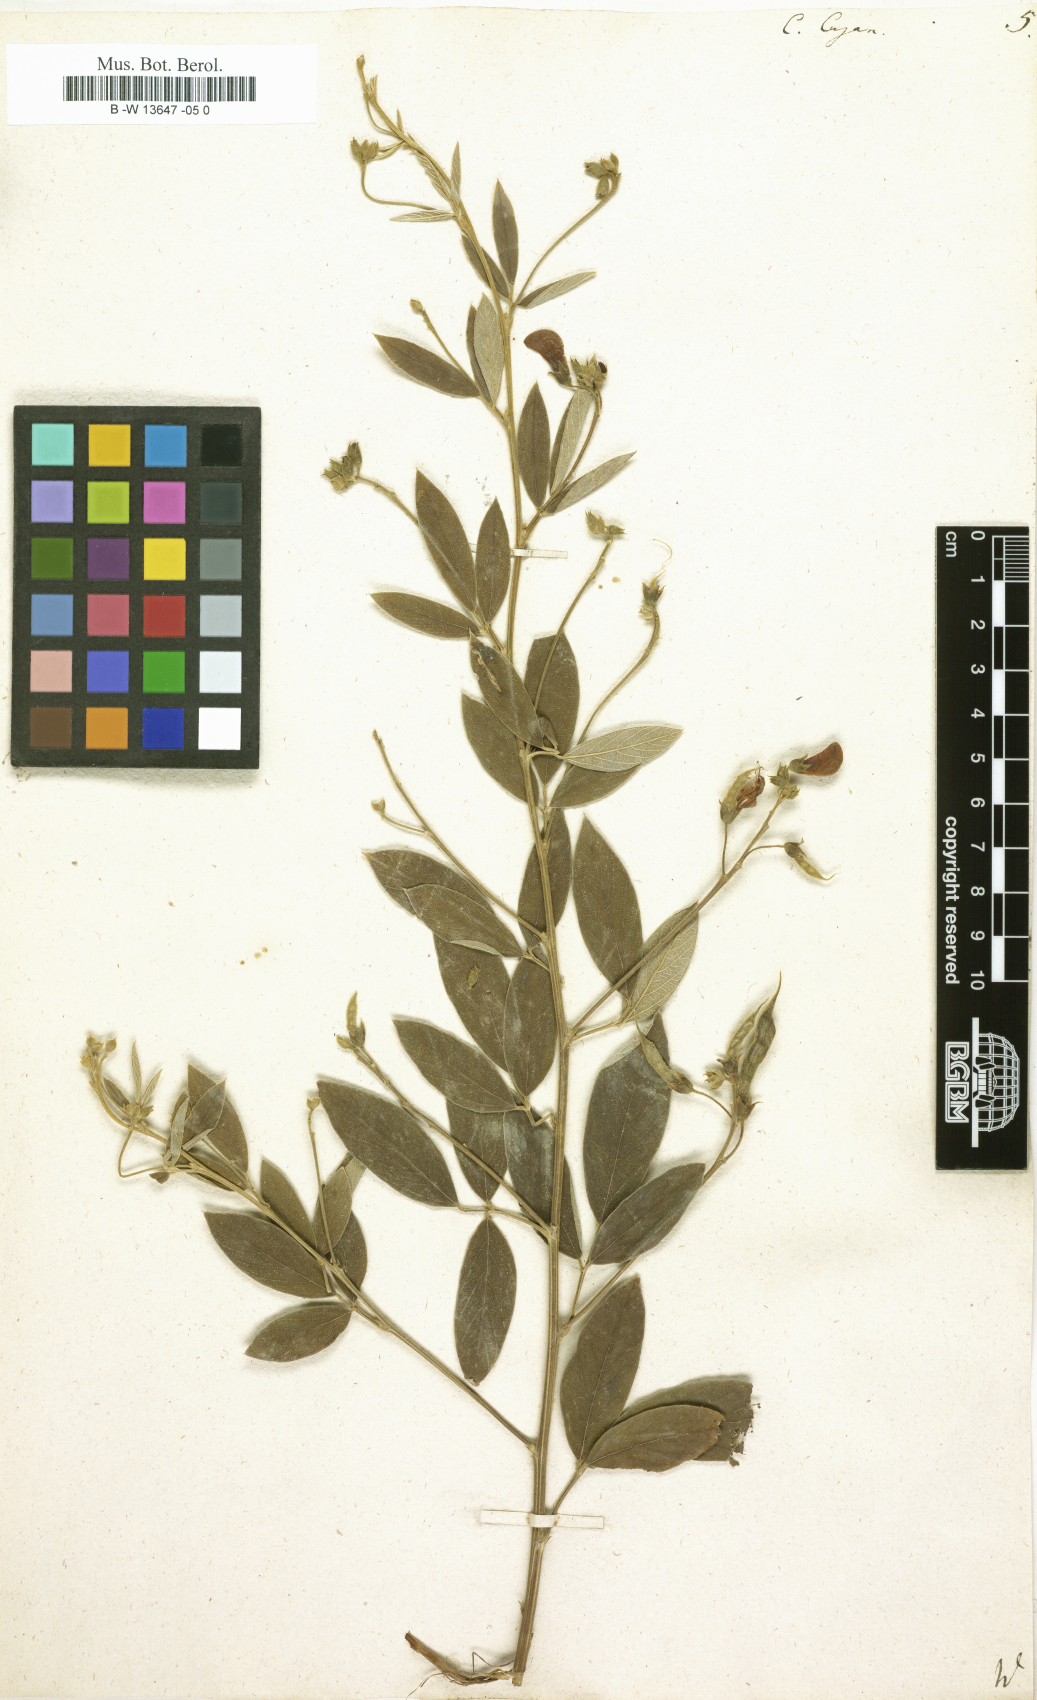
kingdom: Plantae
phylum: Tracheophyta
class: Magnoliopsida
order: Fabales
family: Fabaceae
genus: Cajanus
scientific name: Cajanus cajan
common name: Pigeonpea
